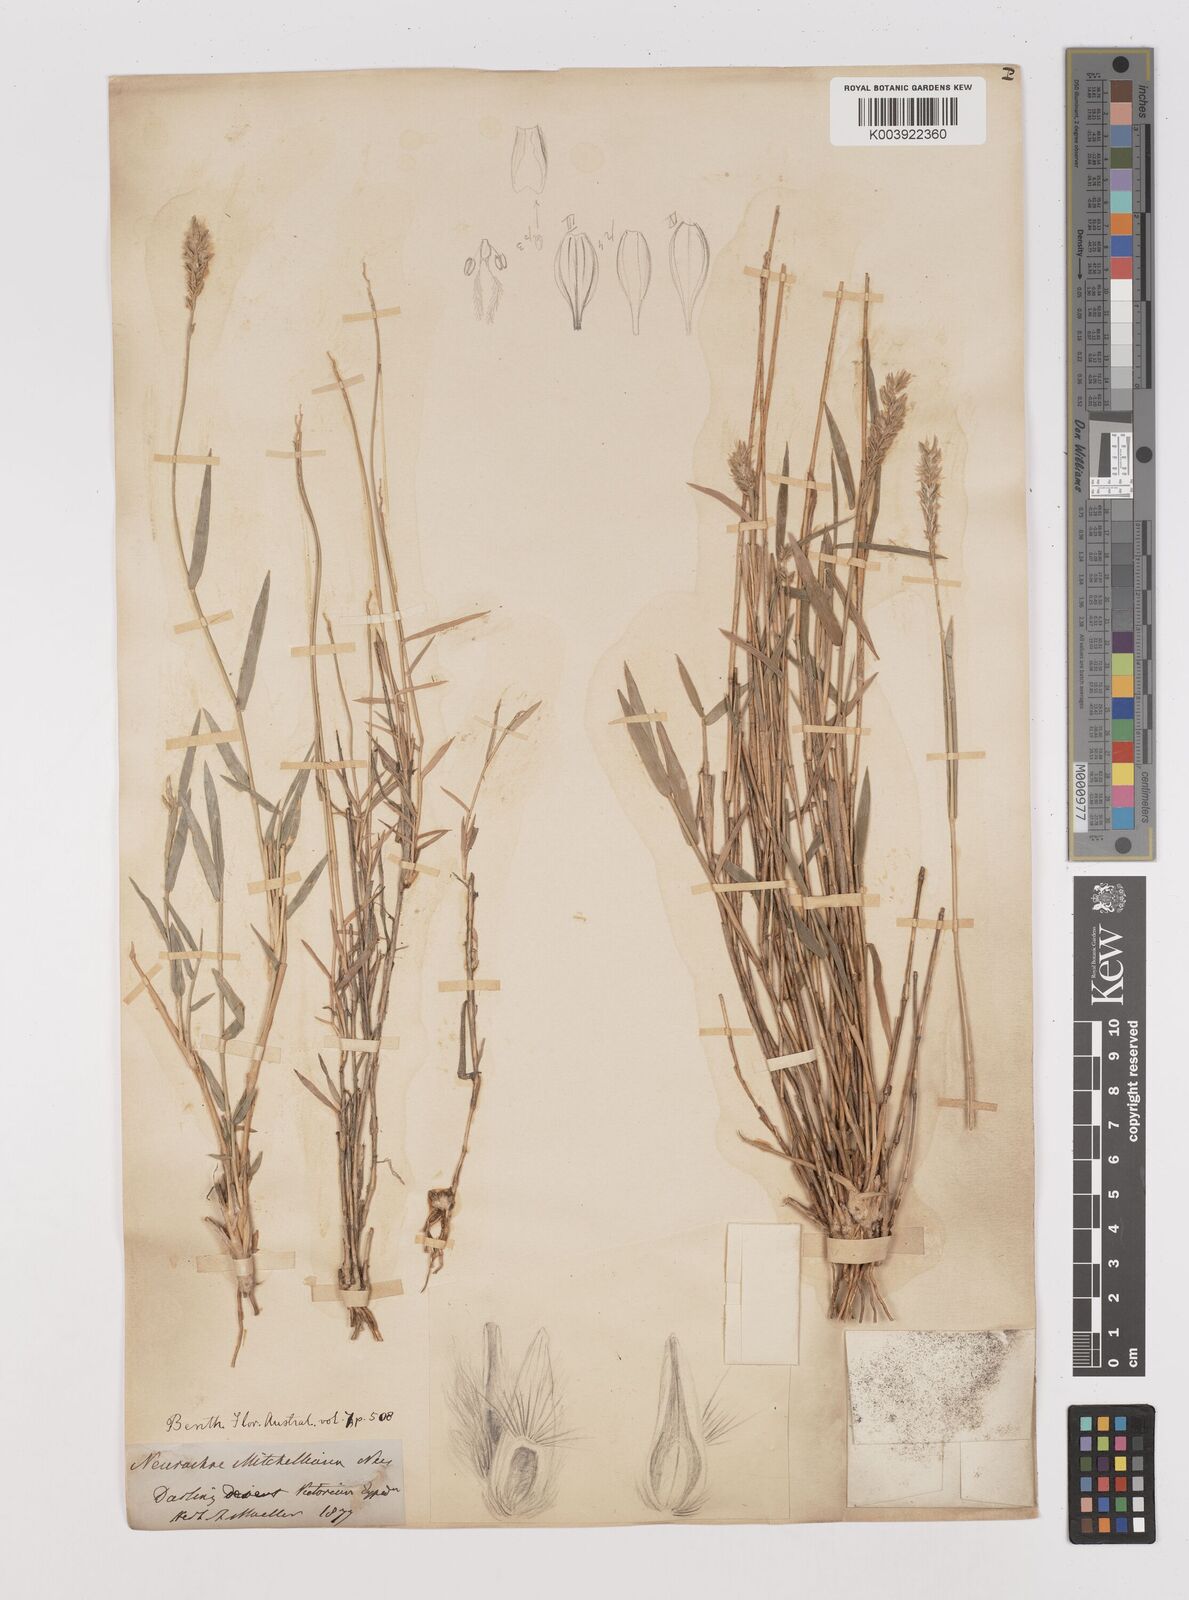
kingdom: Plantae
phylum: Tracheophyta
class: Liliopsida
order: Poales
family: Poaceae
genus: Thyridolepis
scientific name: Thyridolepis mitchelliana
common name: Rock tassel grass
